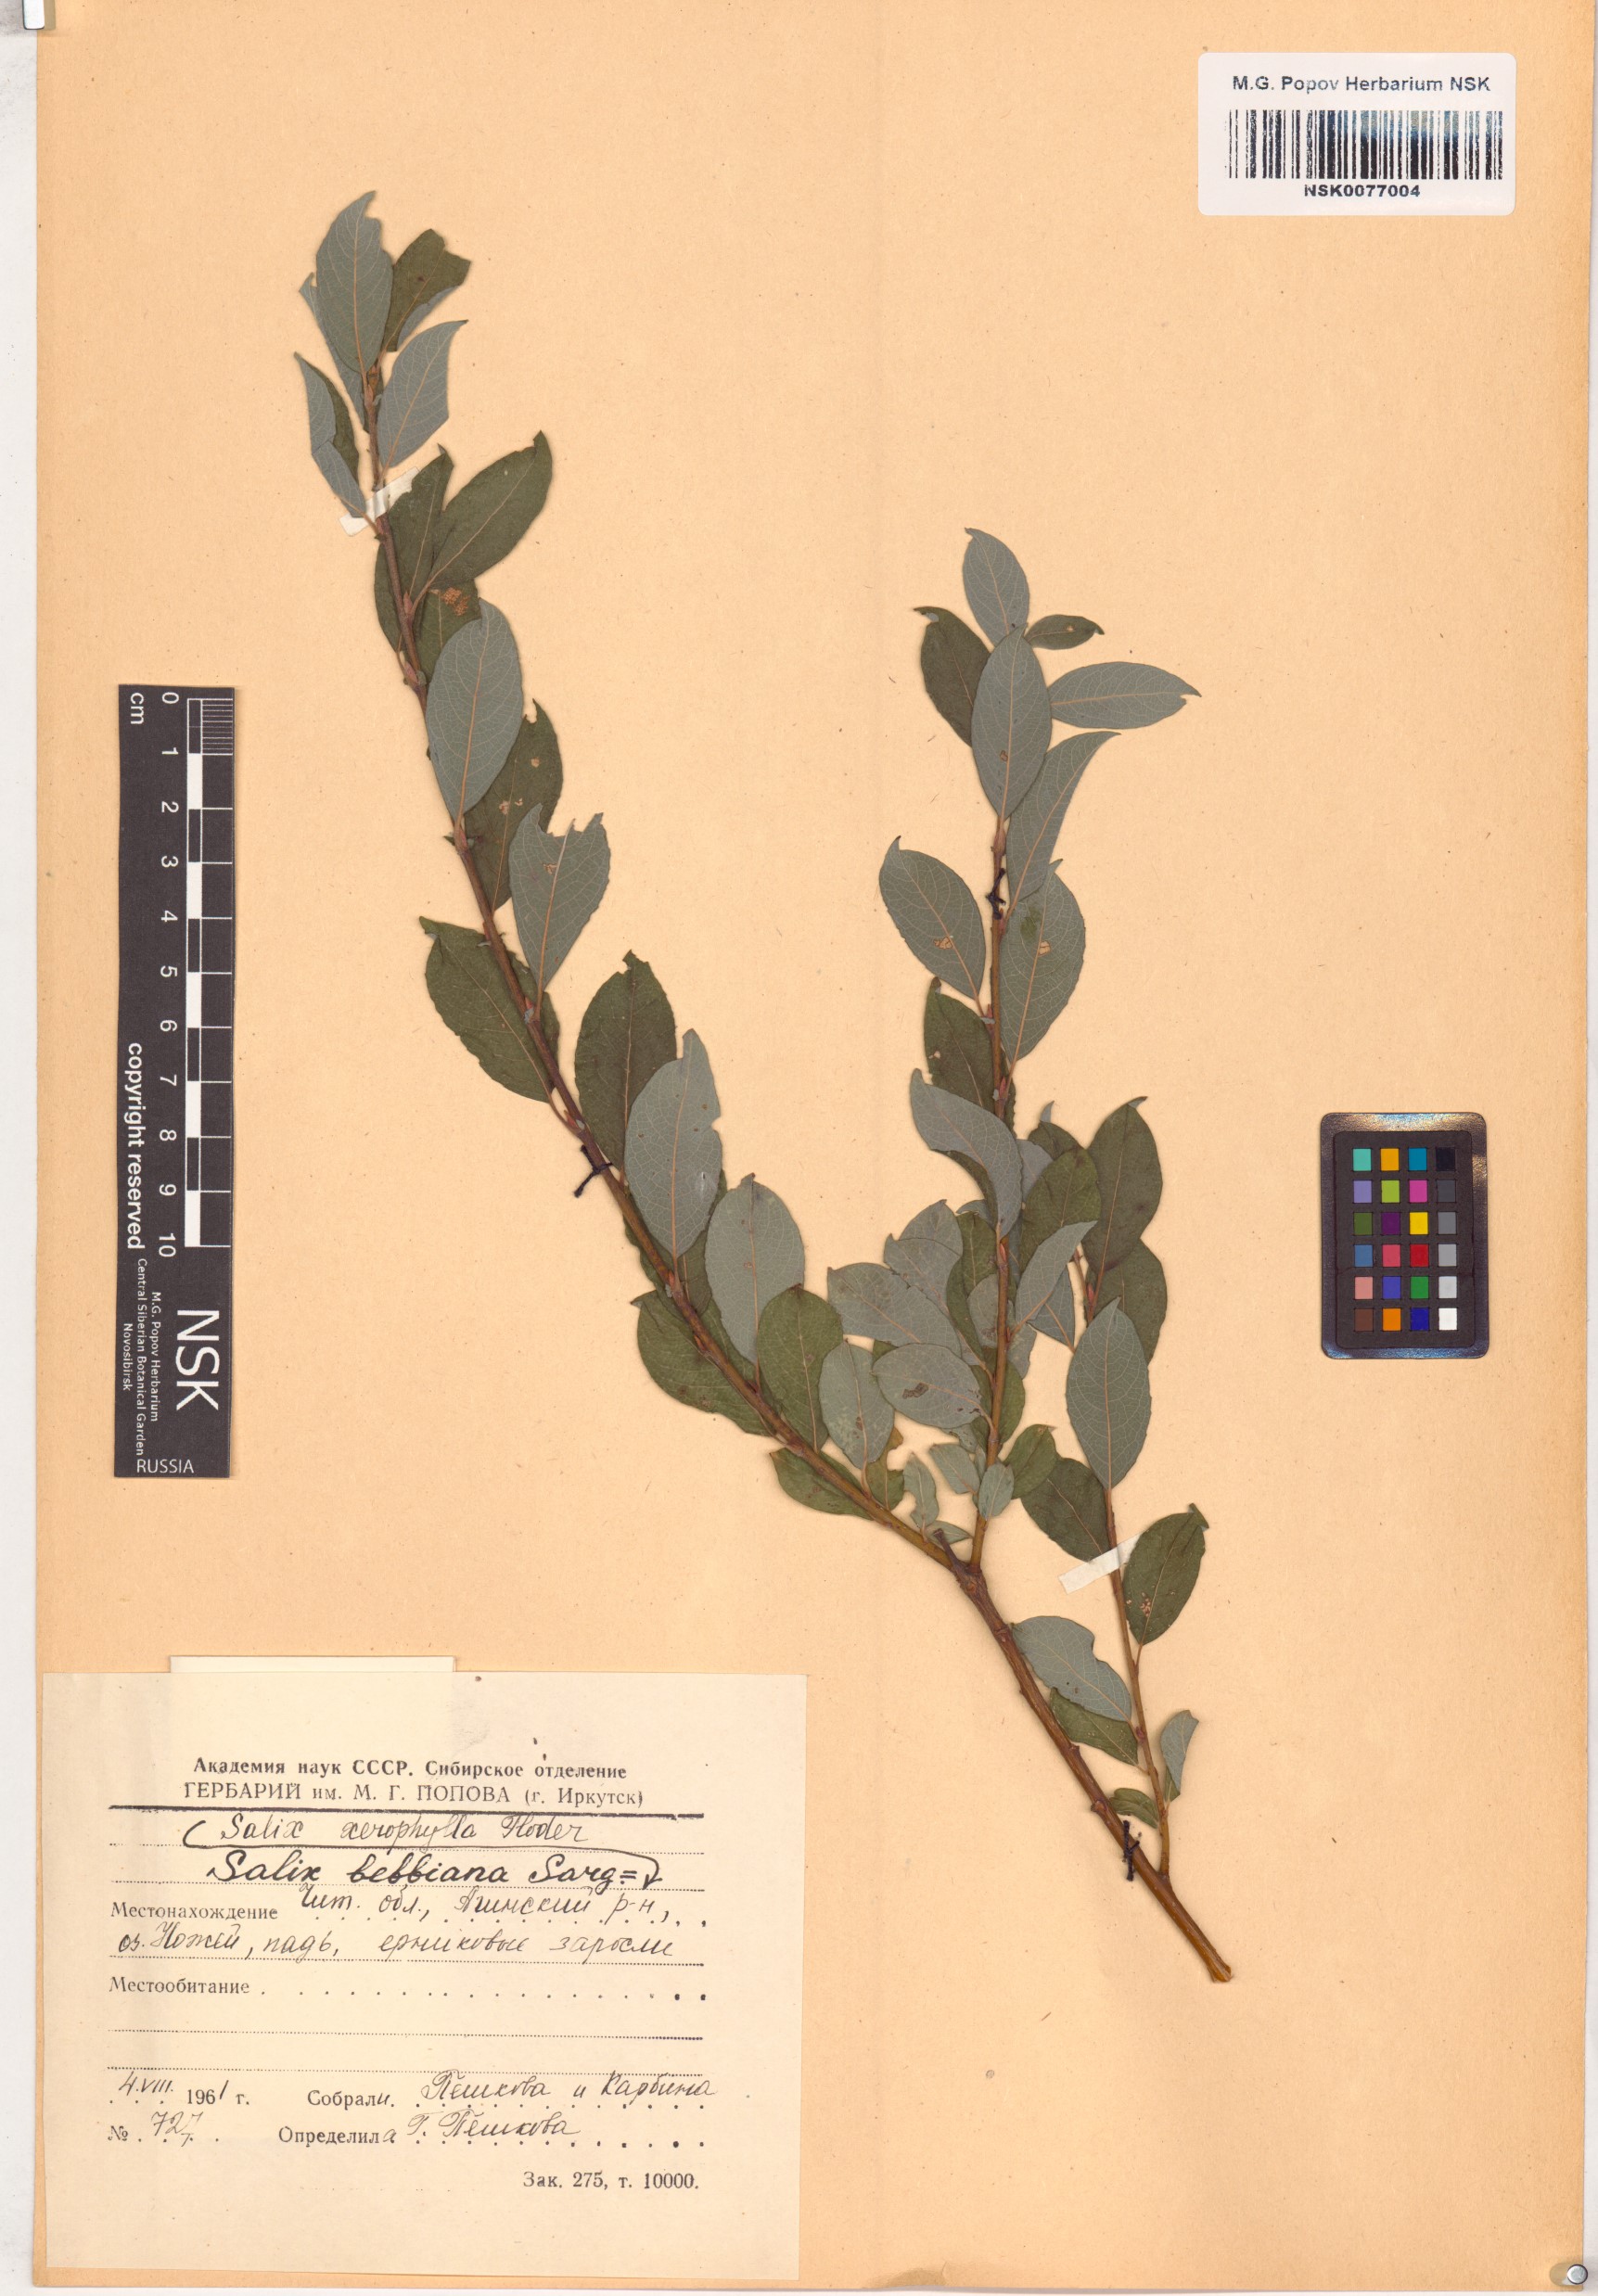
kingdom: Plantae
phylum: Tracheophyta
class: Magnoliopsida
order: Malpighiales
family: Salicaceae
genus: Salix
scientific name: Salix bebbiana
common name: Bebb's willow
